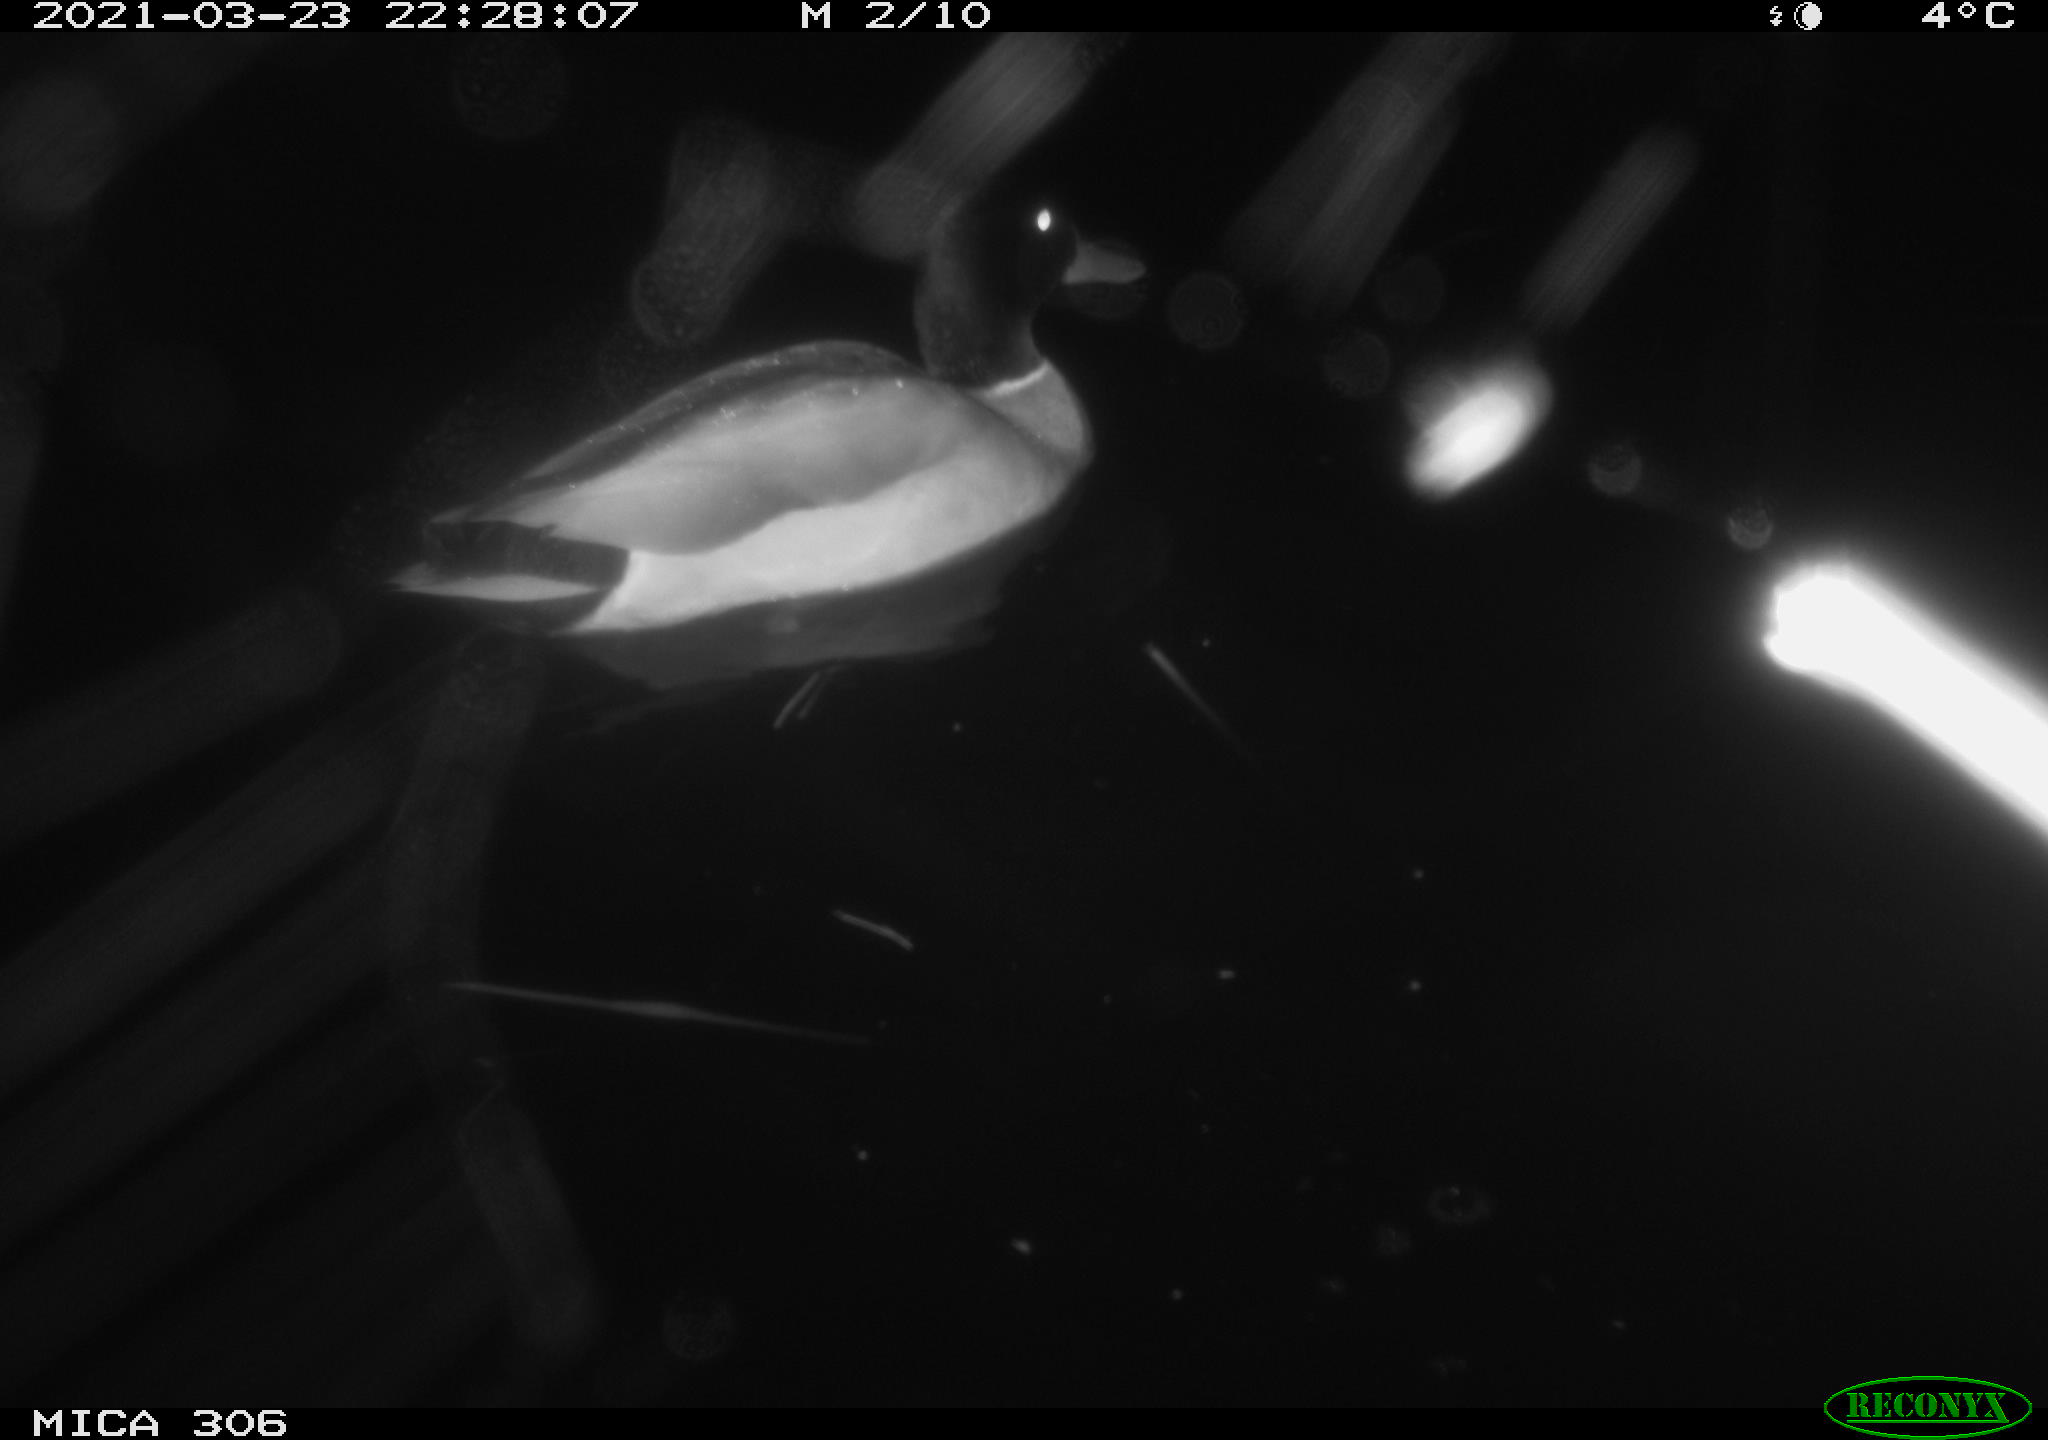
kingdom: Animalia
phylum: Chordata
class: Aves
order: Anseriformes
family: Anatidae
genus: Anas
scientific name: Anas platyrhynchos
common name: Mallard
